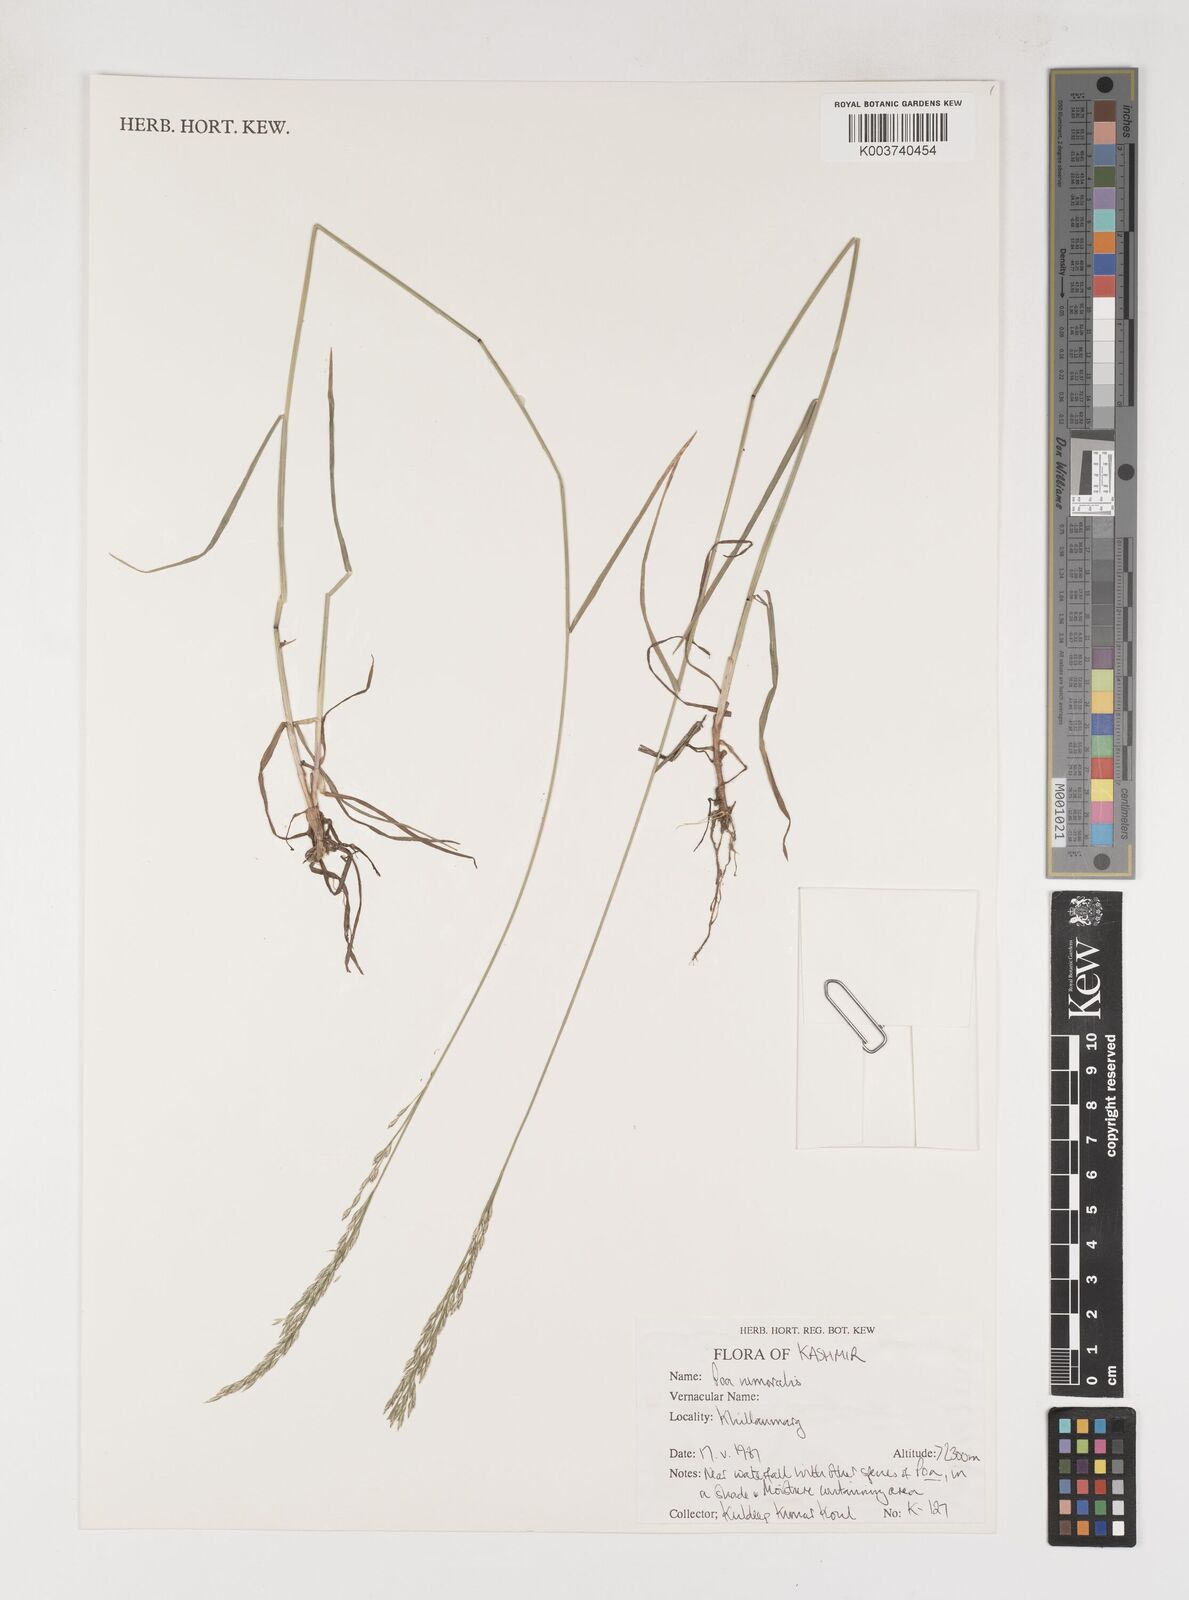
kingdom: Plantae
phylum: Tracheophyta
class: Liliopsida
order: Poales
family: Poaceae
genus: Poa
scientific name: Poa nemoralis
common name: Wood bluegrass
